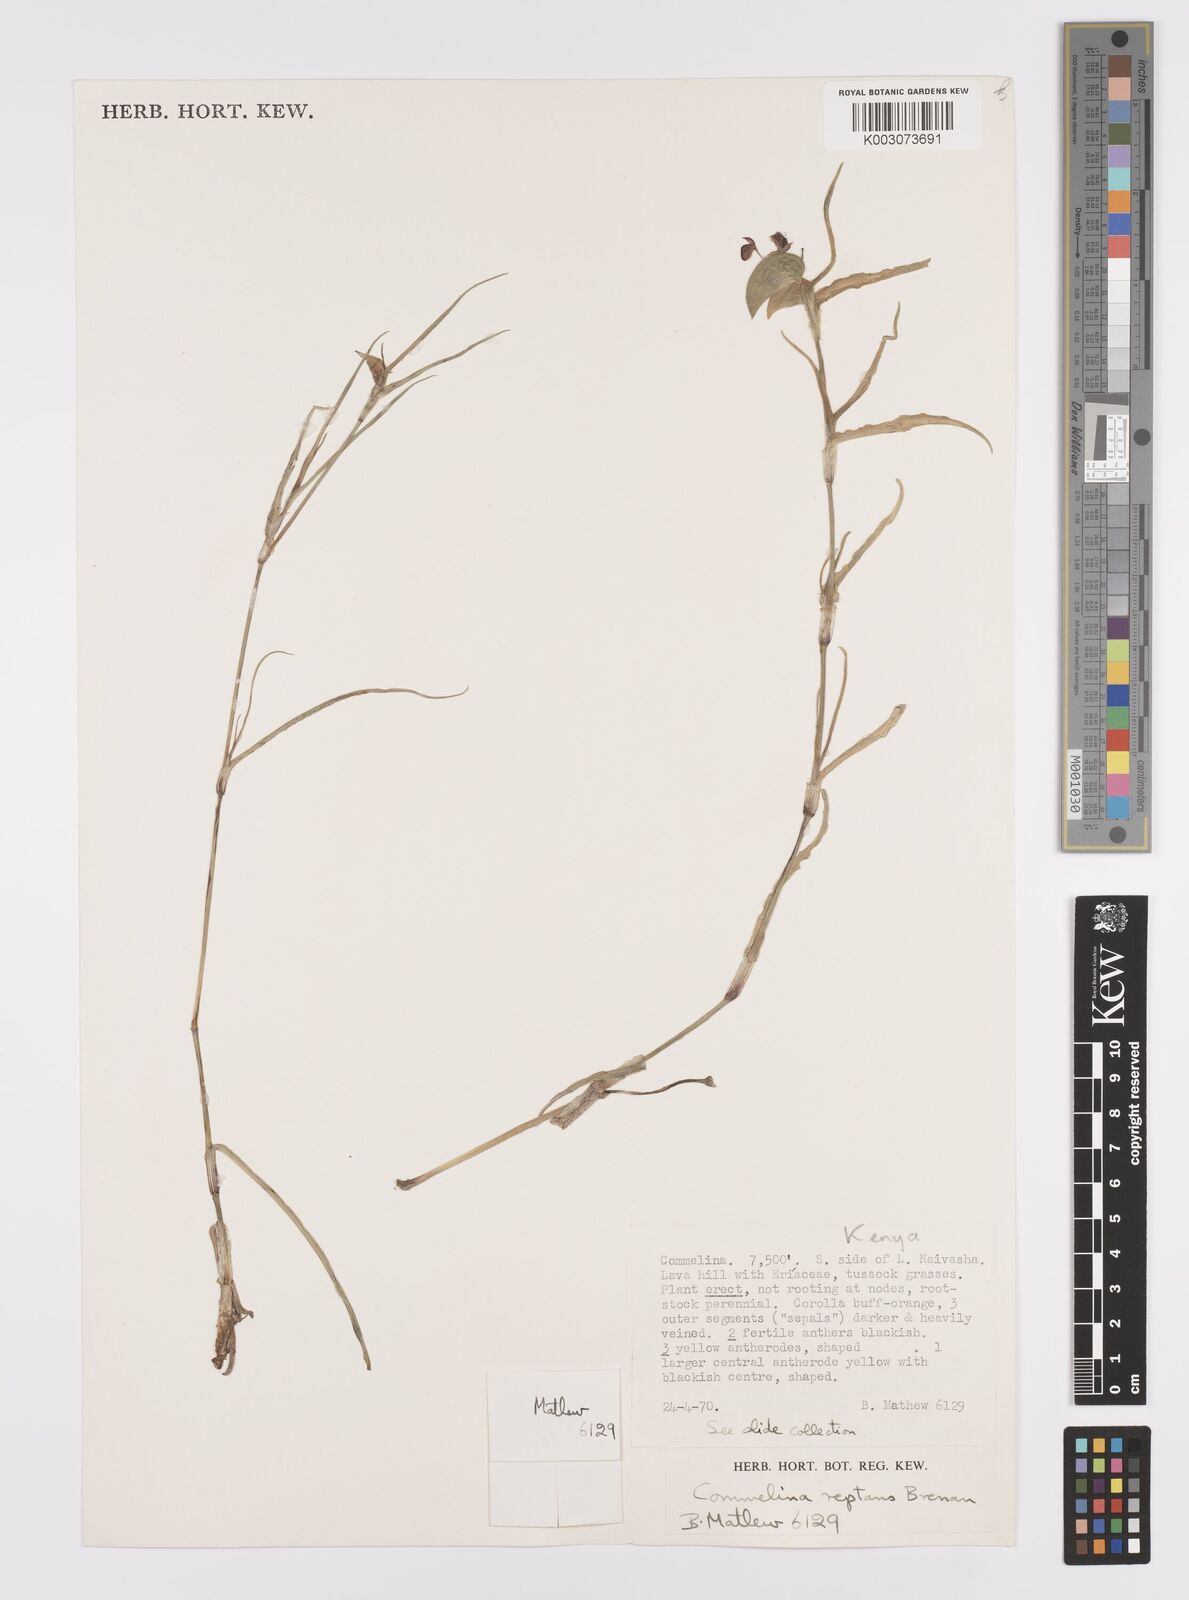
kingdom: Plantae
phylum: Tracheophyta
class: Liliopsida
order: Commelinales
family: Commelinaceae
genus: Commelina
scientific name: Commelina reptans
